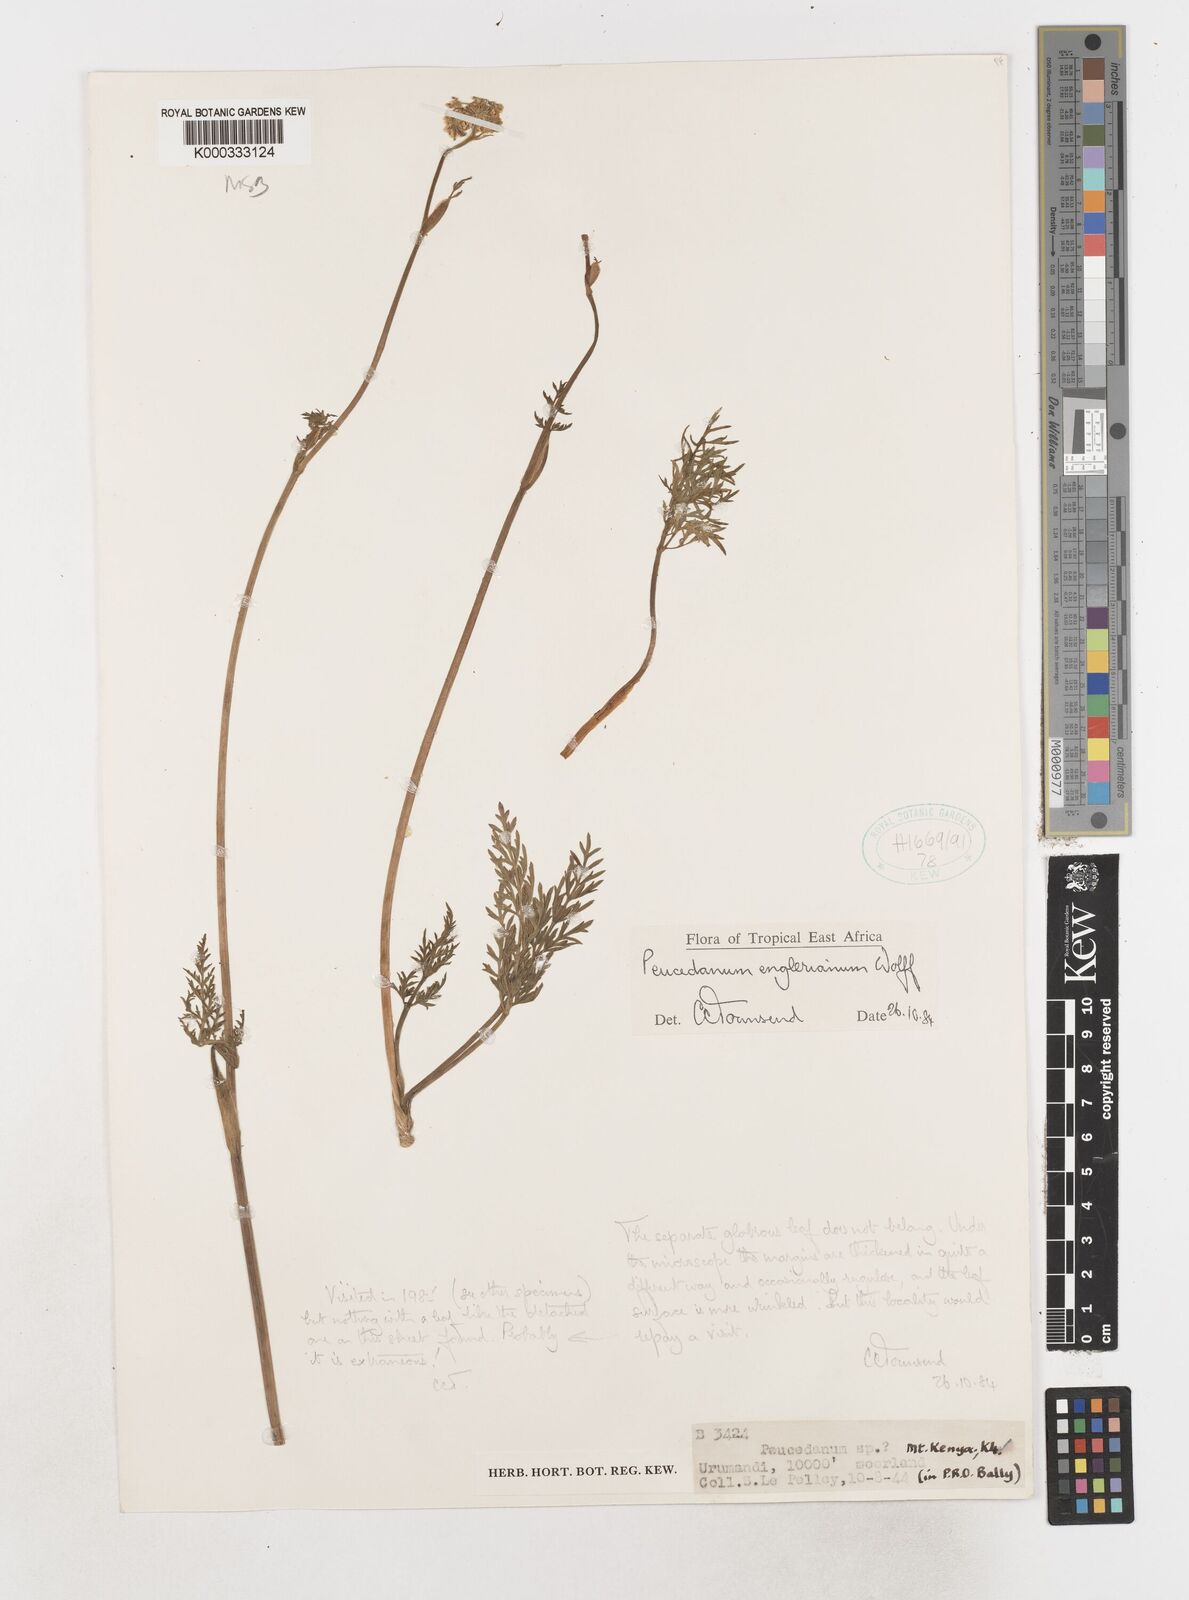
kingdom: Plantae
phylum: Tracheophyta
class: Magnoliopsida
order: Apiales
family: Apiaceae
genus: Oreoschimperella
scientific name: Oreoschimperella
